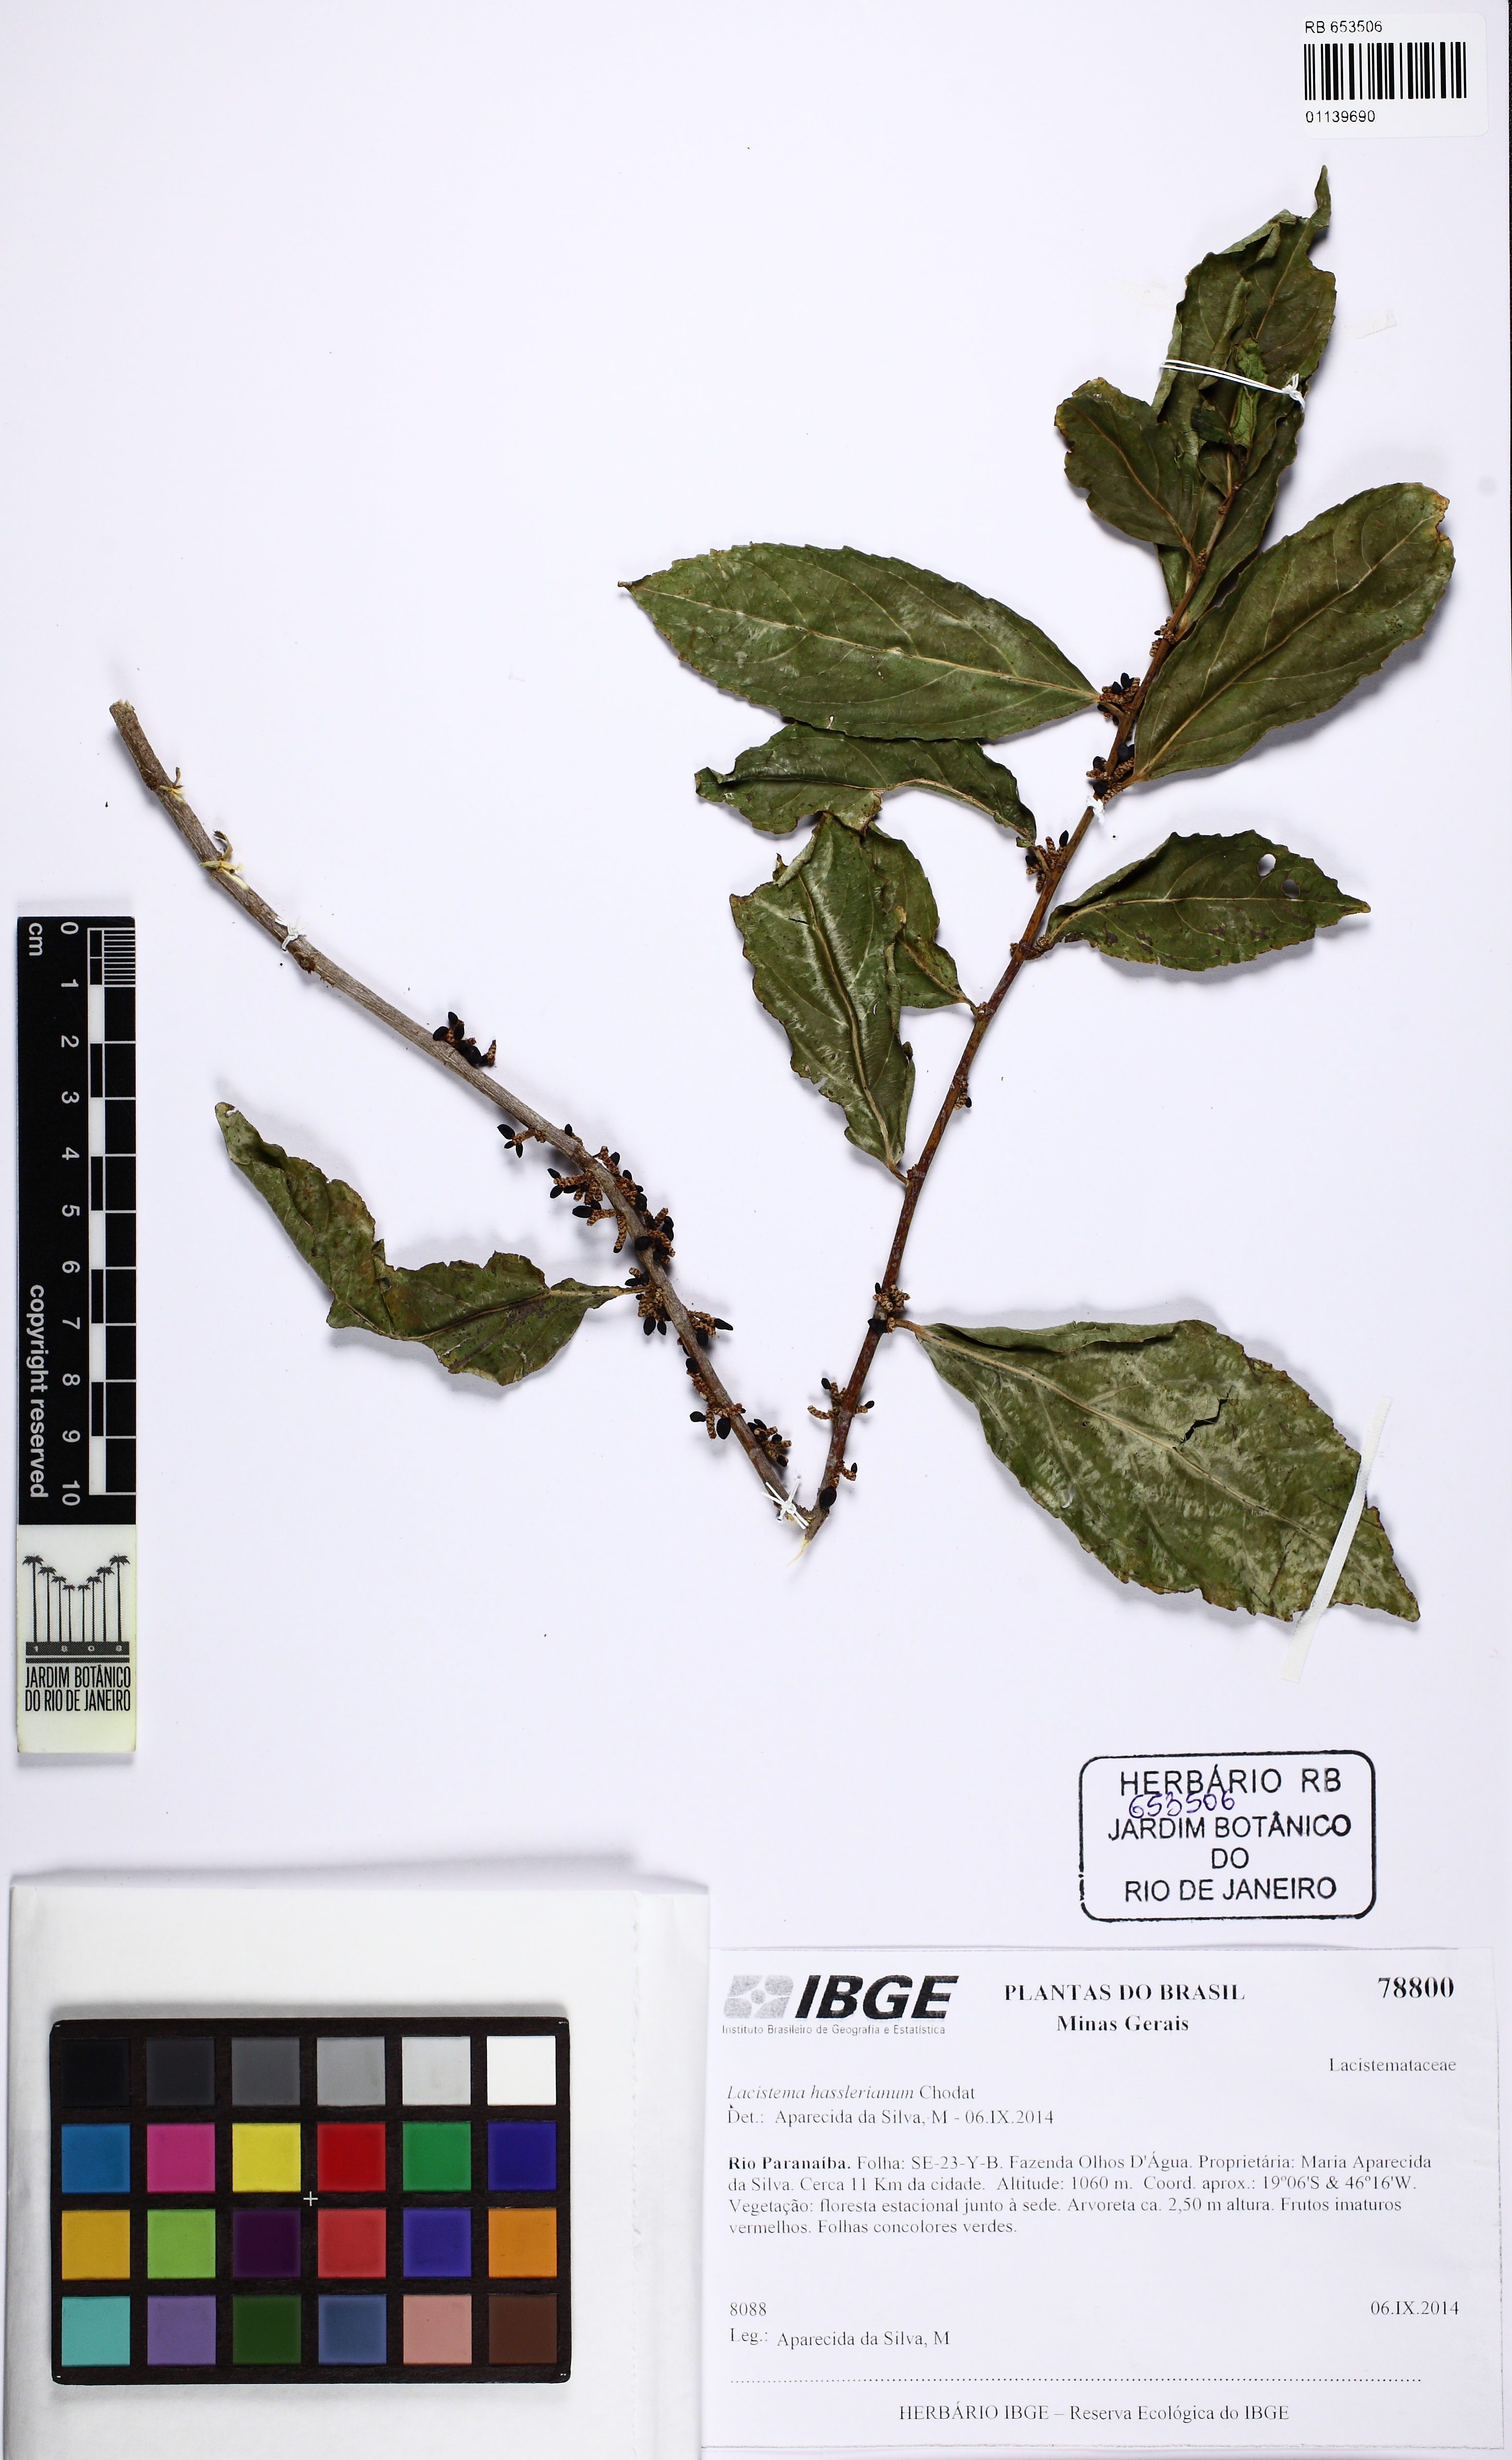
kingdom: Plantae
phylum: Tracheophyta
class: Magnoliopsida
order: Malpighiales
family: Lacistemataceae
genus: Lacistema
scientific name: Lacistema hasslerianum
